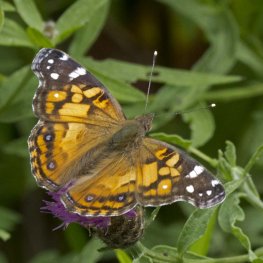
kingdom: Animalia
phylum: Arthropoda
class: Insecta
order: Lepidoptera
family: Nymphalidae
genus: Vanessa
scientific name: Vanessa virginiensis
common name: American Lady
